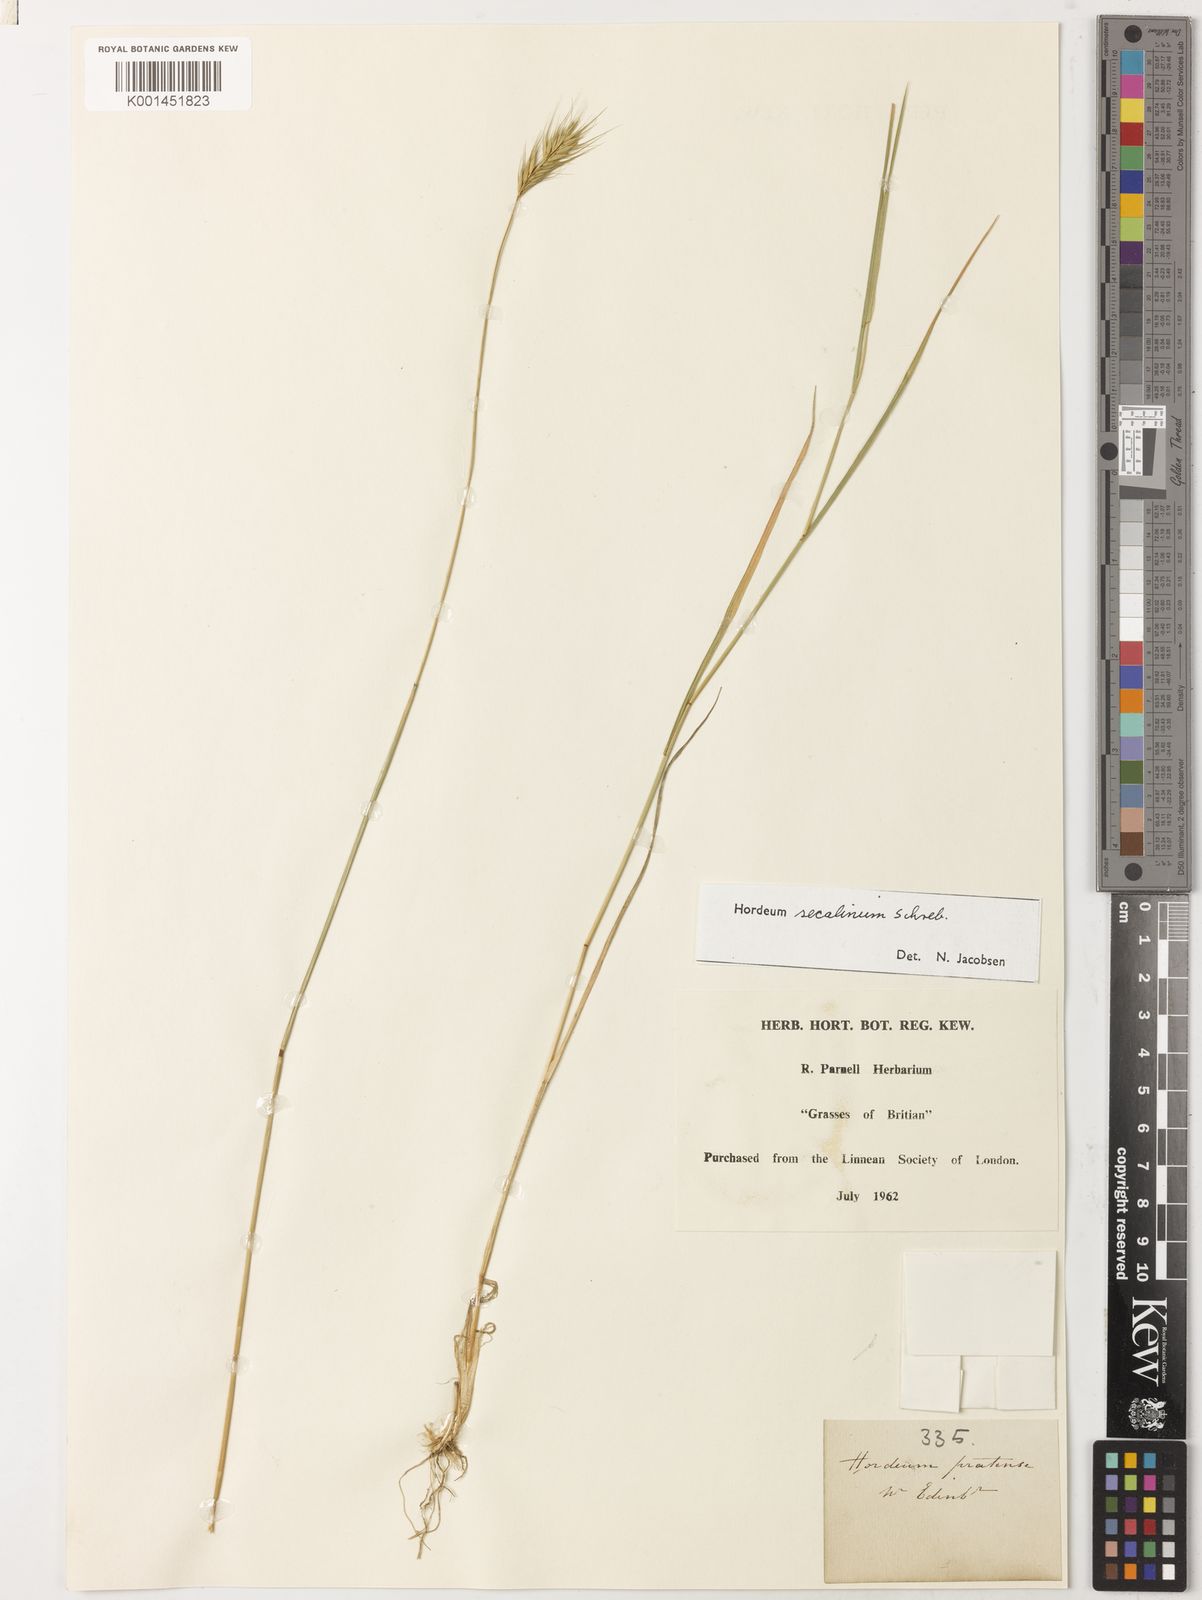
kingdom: Plantae
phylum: Tracheophyta
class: Liliopsida
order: Poales
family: Poaceae
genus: Hordeum
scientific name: Hordeum secalinum
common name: Meadow barley
